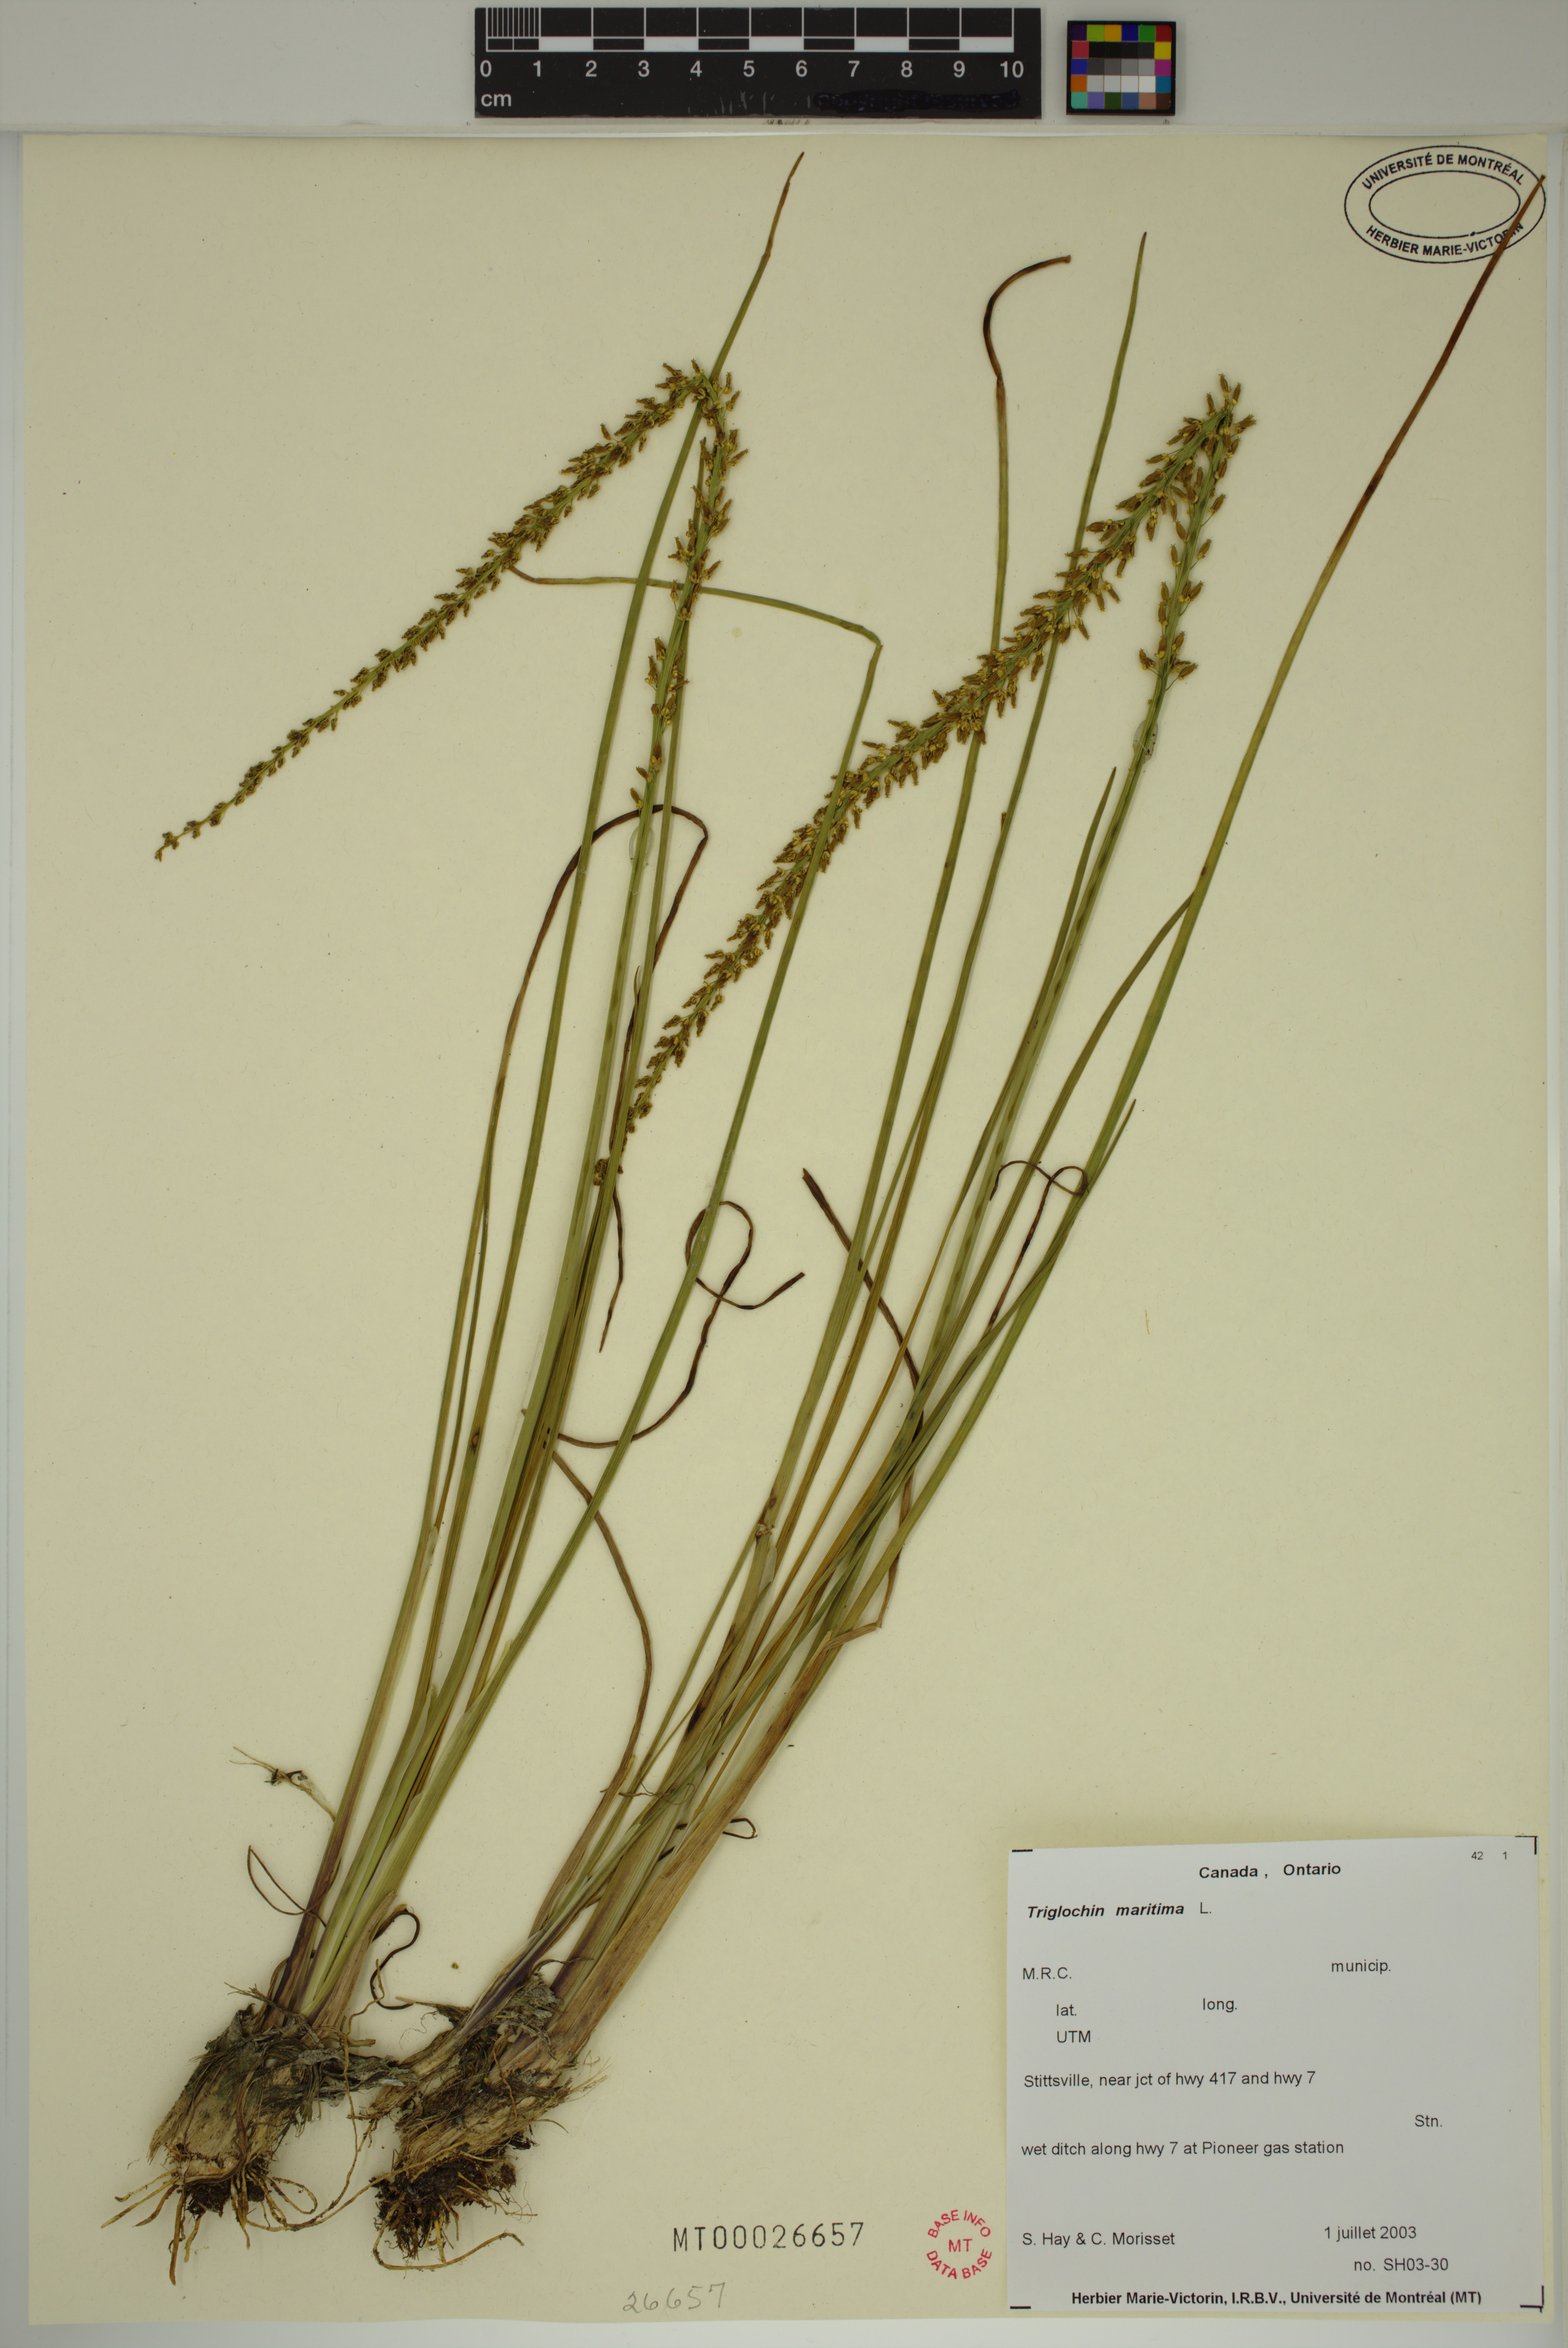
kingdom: Plantae
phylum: Tracheophyta
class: Liliopsida
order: Alismatales
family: Juncaginaceae
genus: Triglochin
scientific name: Triglochin maritima
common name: Sea arrowgrass
